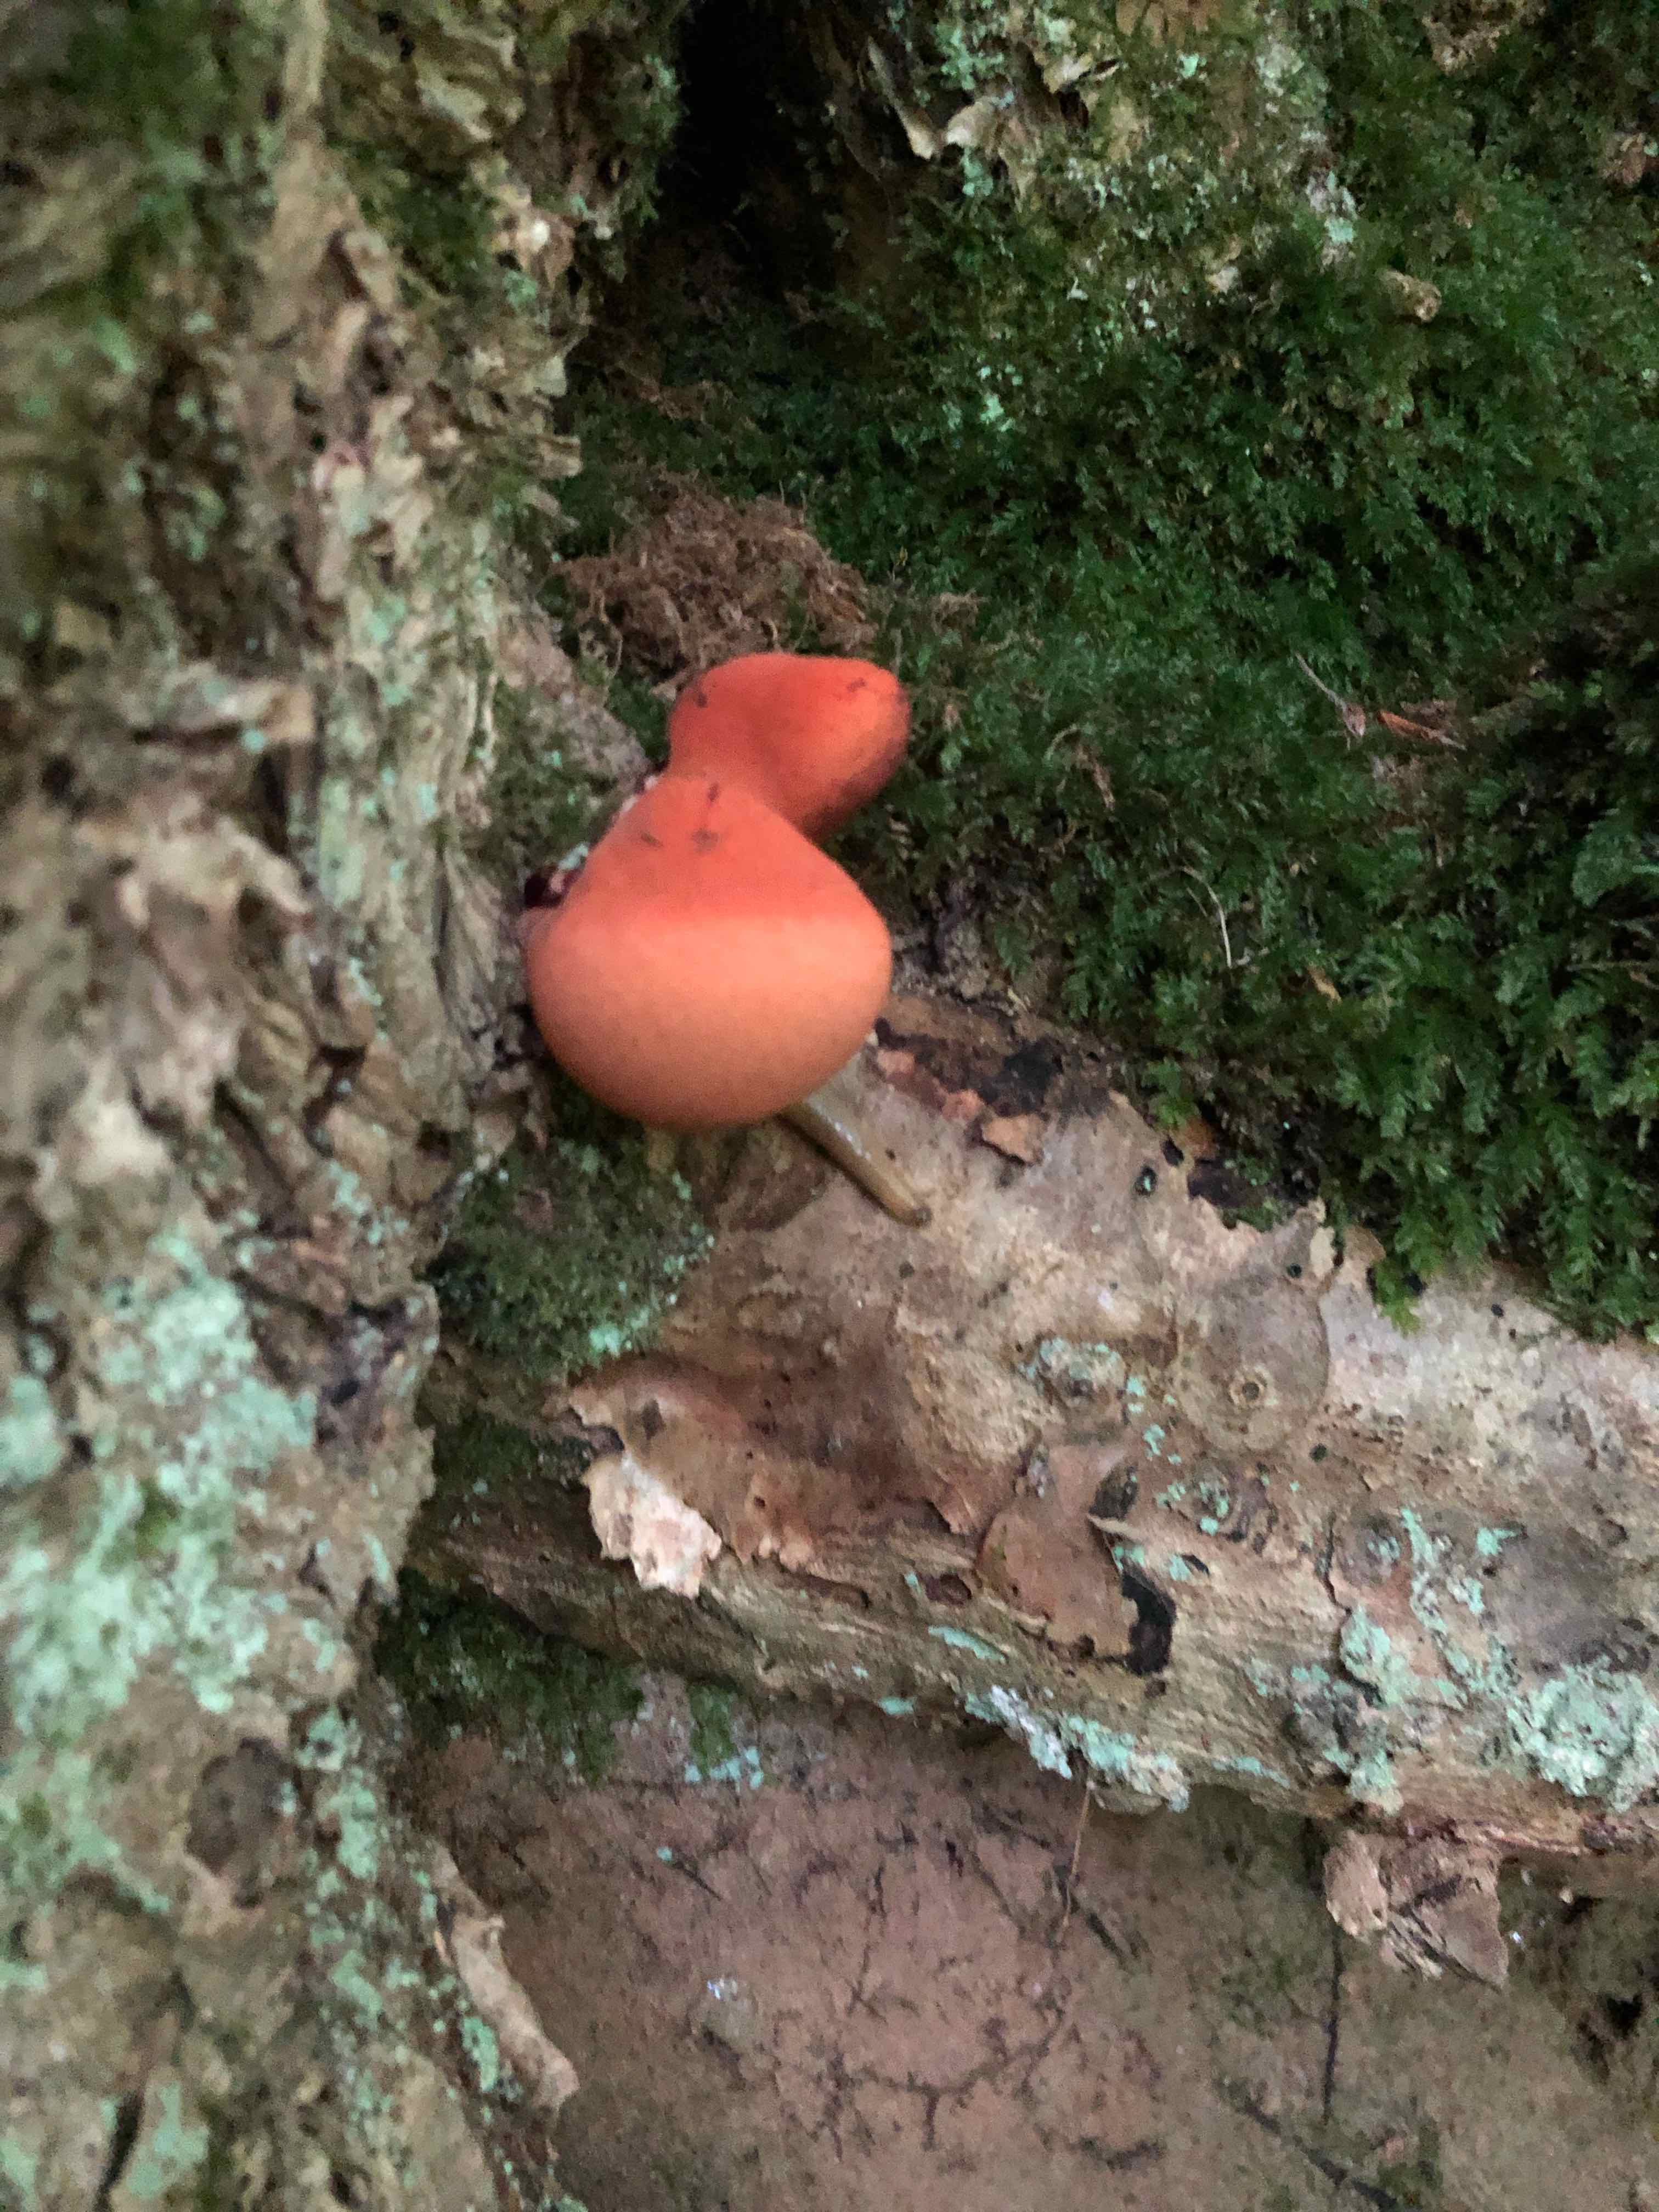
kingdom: Fungi
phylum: Basidiomycota
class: Agaricomycetes
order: Agaricales
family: Fistulinaceae
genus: Fistulina
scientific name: Fistulina hepatica
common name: oksetunge
